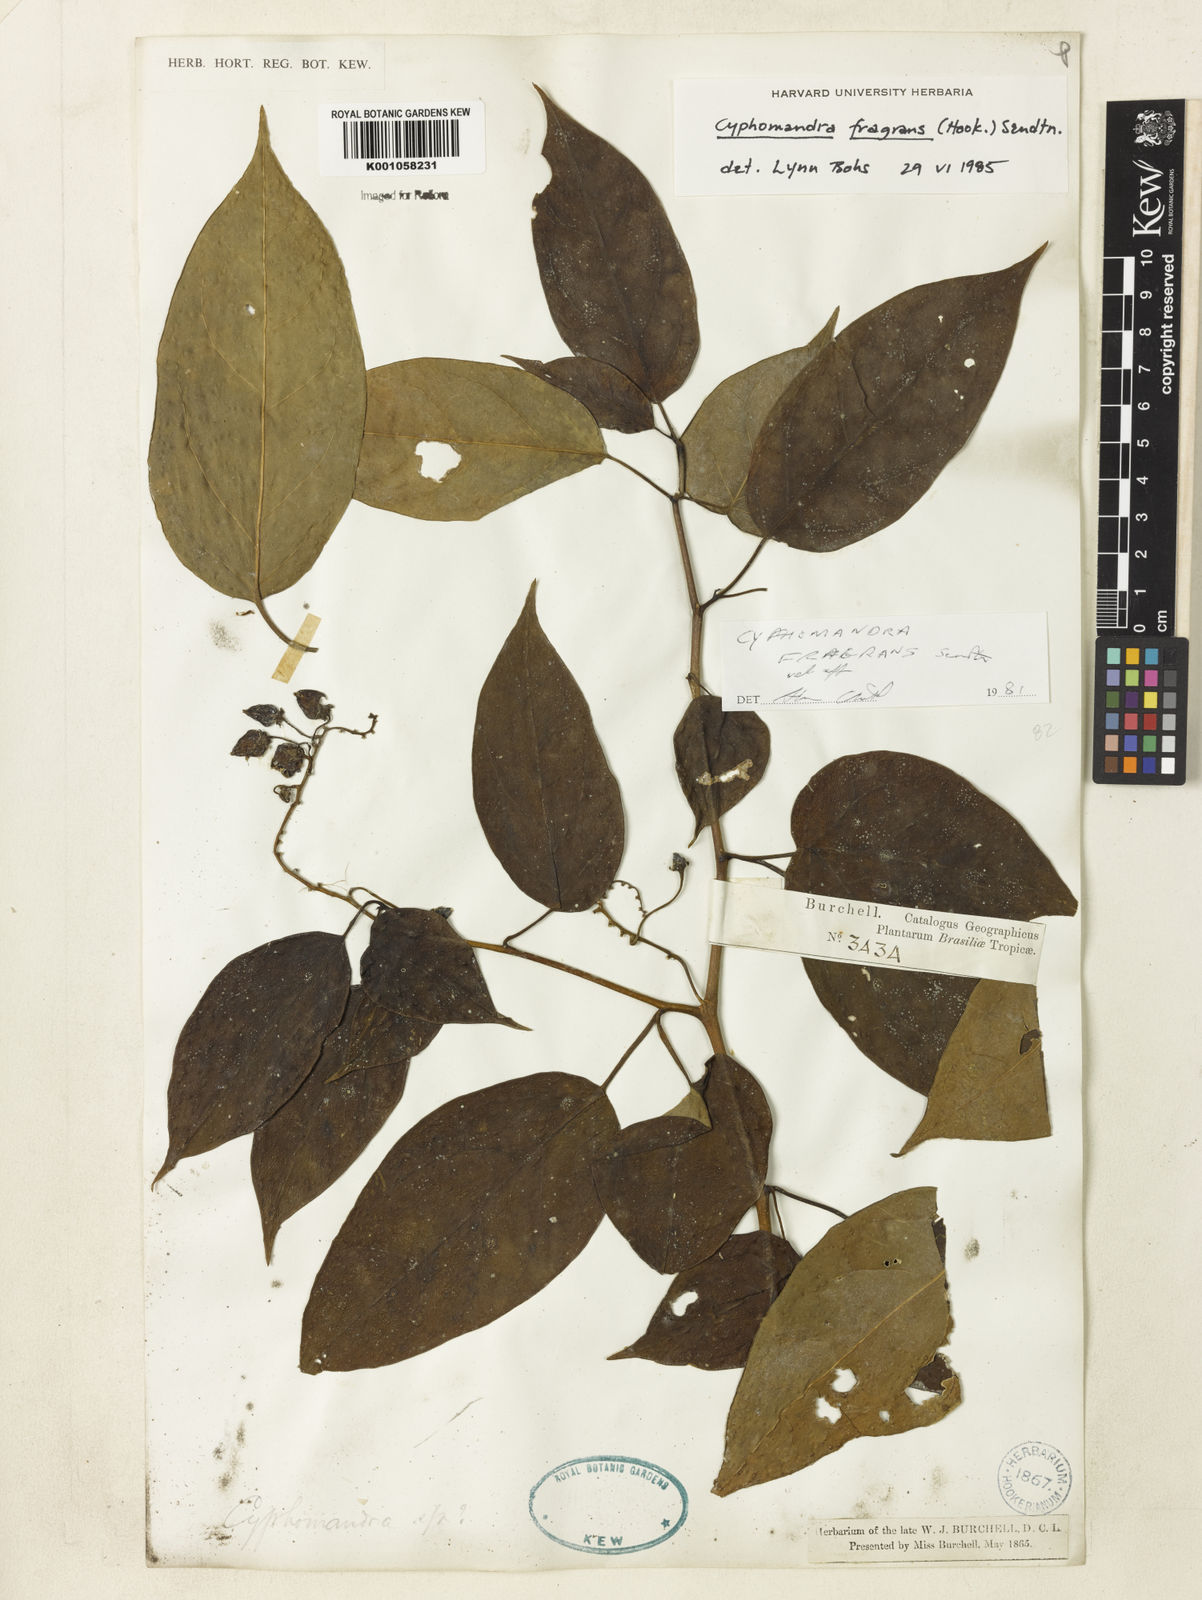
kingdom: Plantae
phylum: Tracheophyta
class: Magnoliopsida
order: Solanales
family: Solanaceae
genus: Solanum
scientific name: Solanum diploconos
